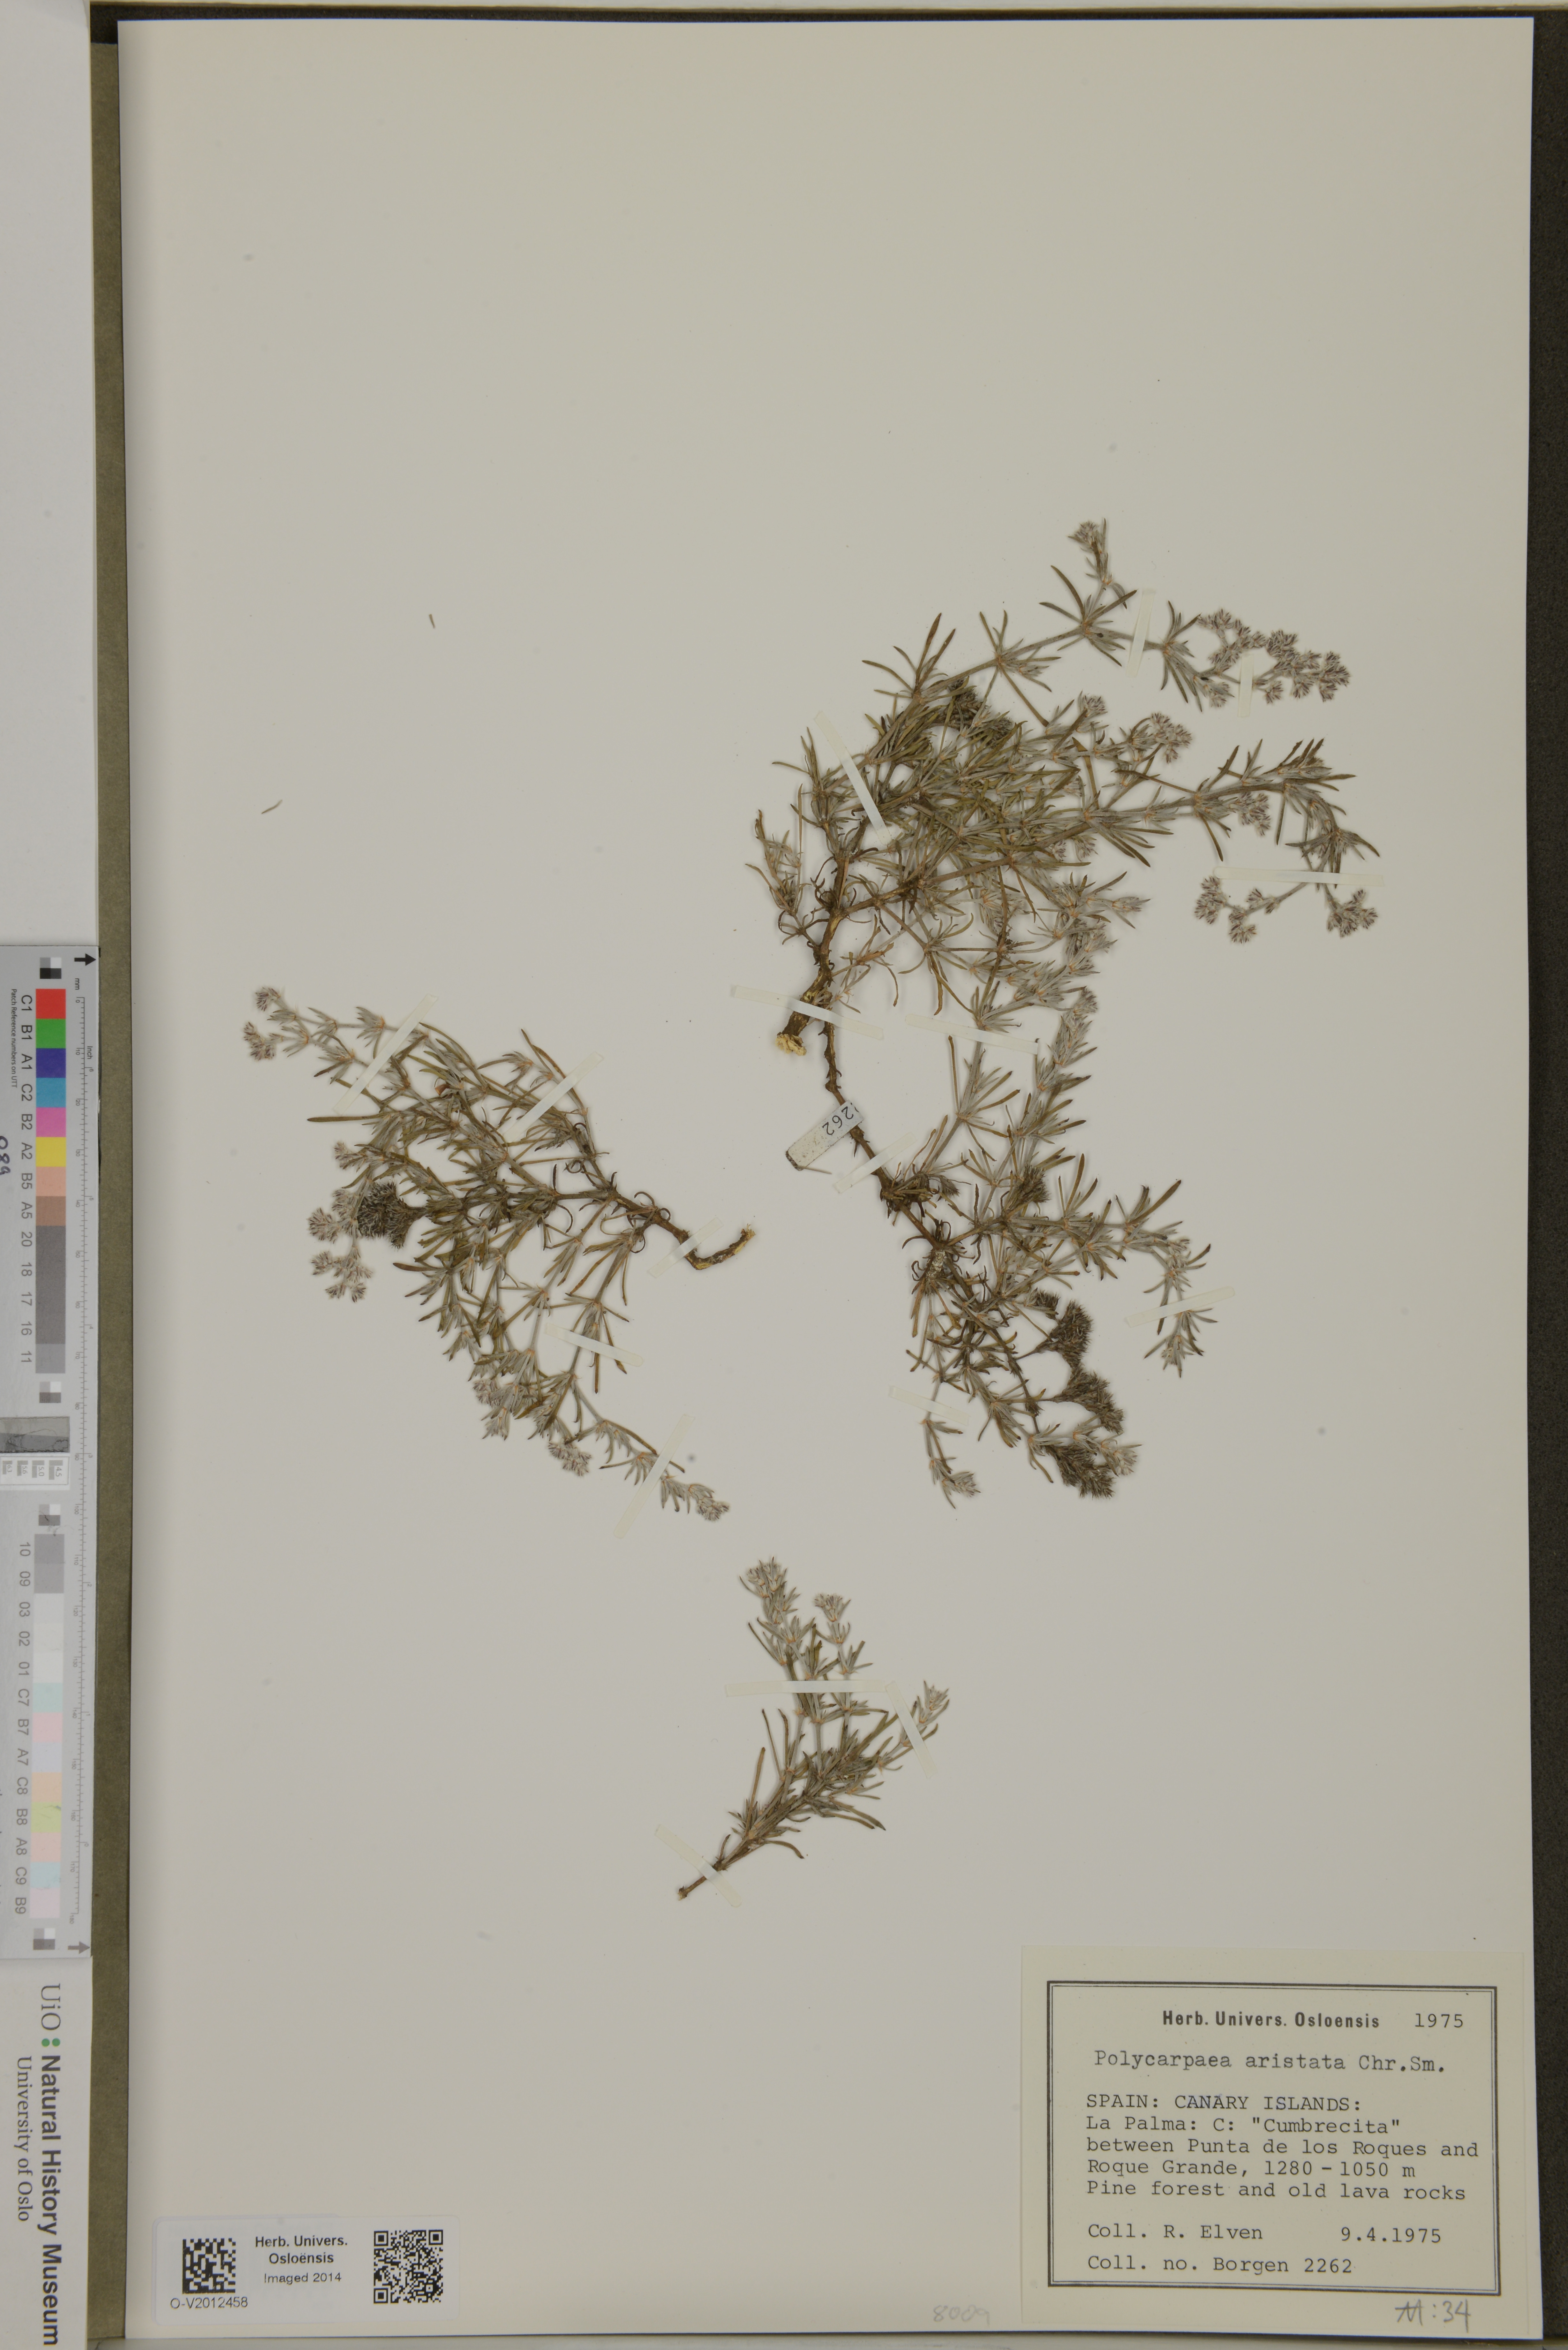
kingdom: Plantae
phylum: Tracheophyta
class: Magnoliopsida
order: Caryophyllales
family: Caryophyllaceae
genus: Polycarpaea
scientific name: Polycarpaea aristata
